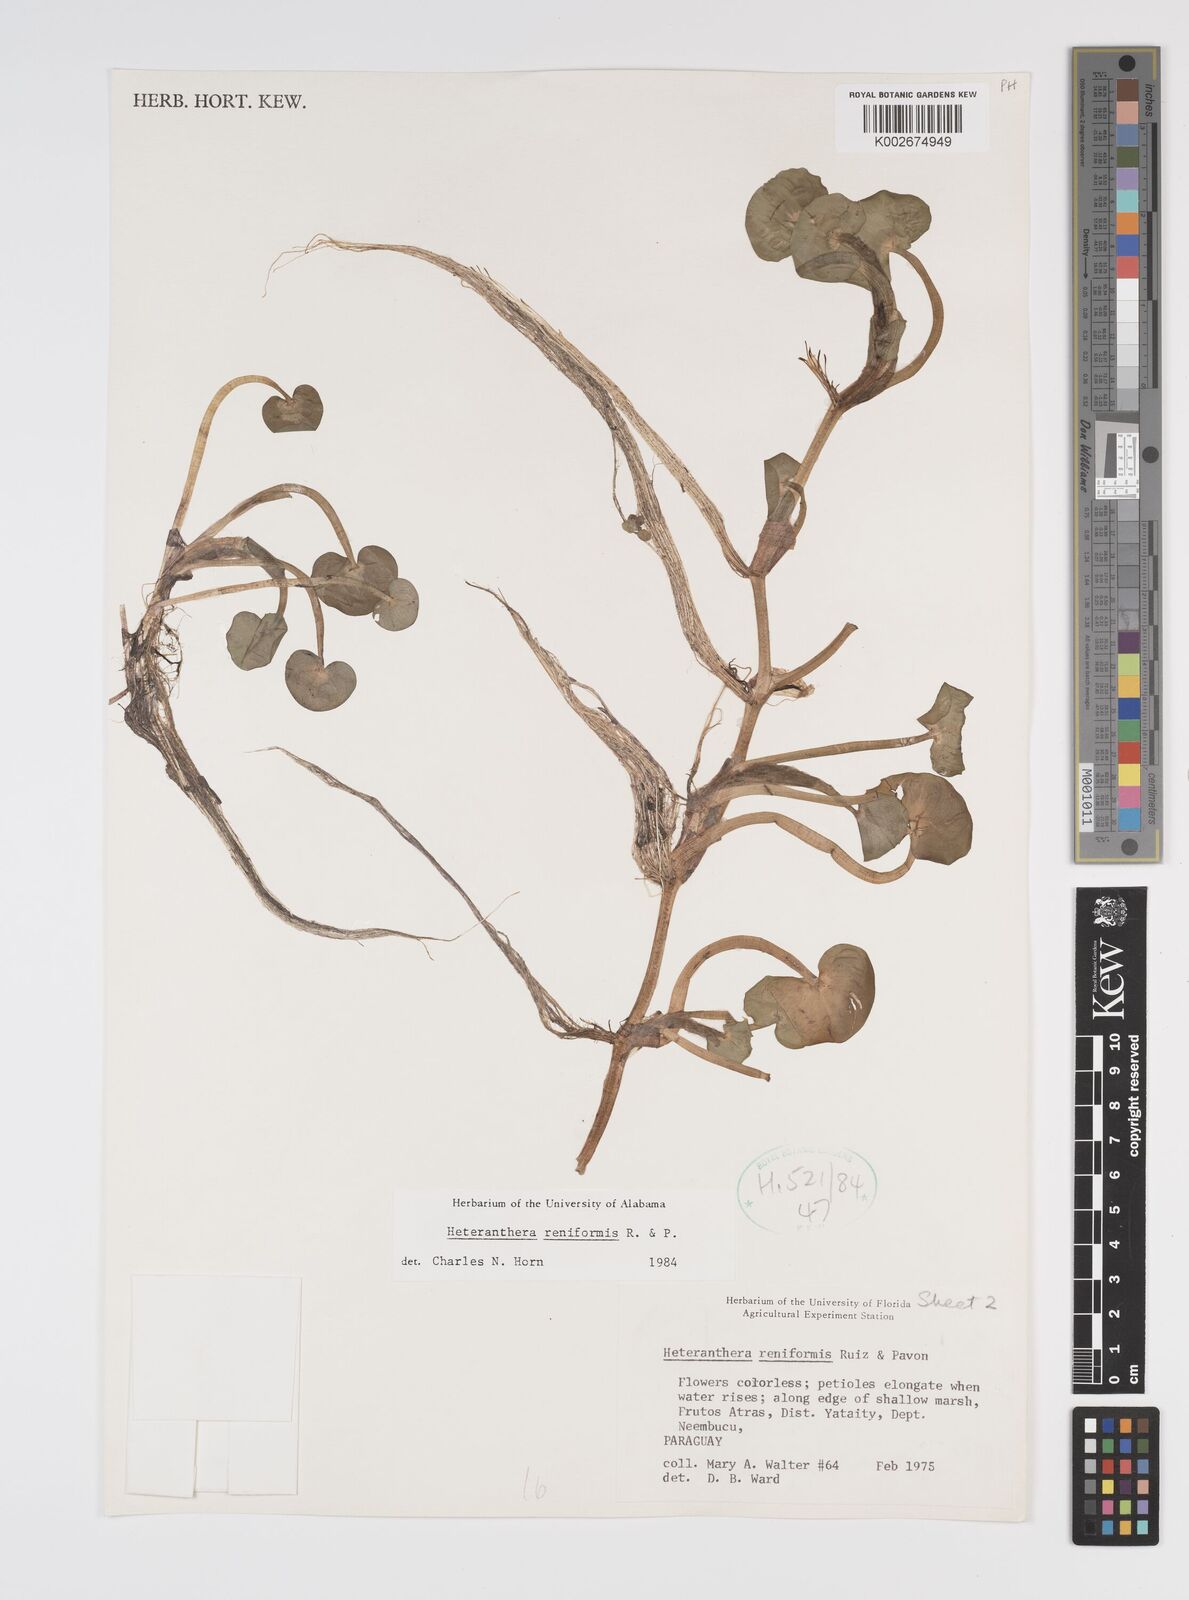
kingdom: Plantae
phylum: Tracheophyta
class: Liliopsida
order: Commelinales
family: Pontederiaceae
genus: Heteranthera
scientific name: Heteranthera reniformis
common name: Kidneyleaf mudplantain
